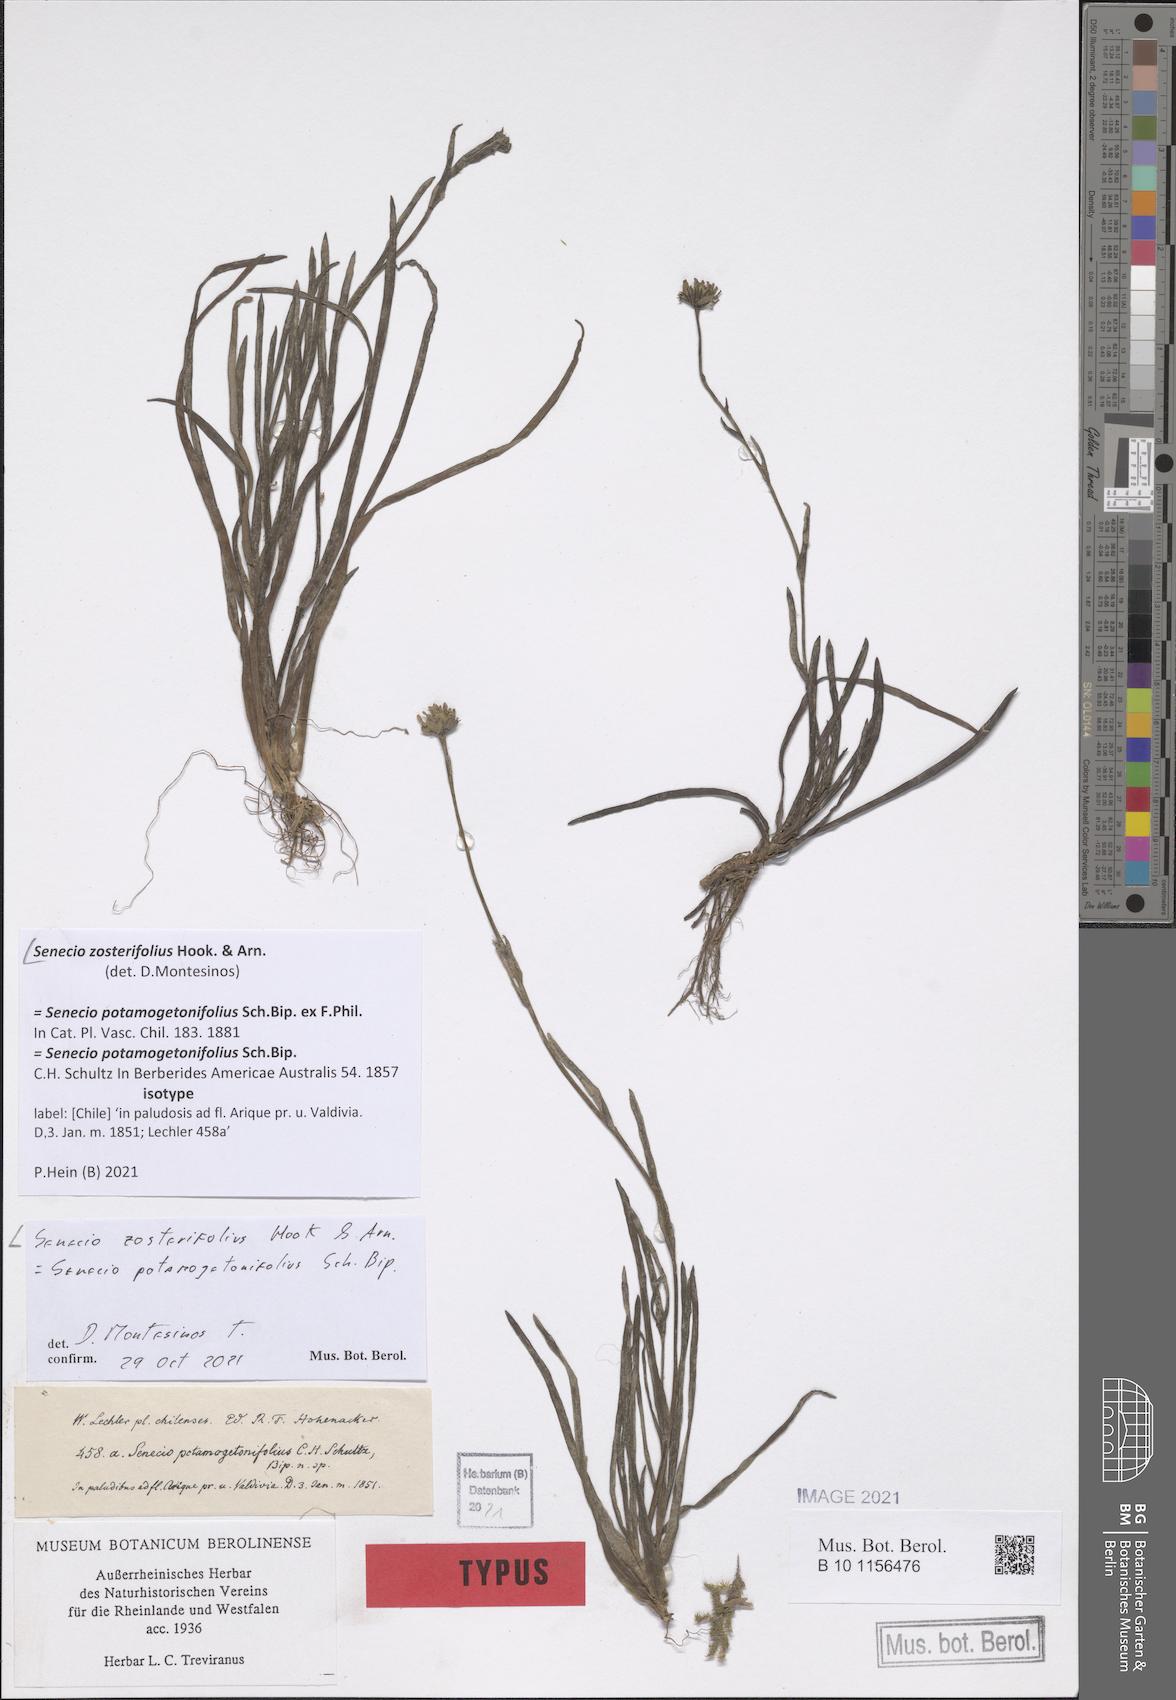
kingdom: Plantae
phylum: Tracheophyta
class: Magnoliopsida
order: Asterales
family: Asteraceae
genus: Haplosticha
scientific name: Haplosticha zosterifolia
